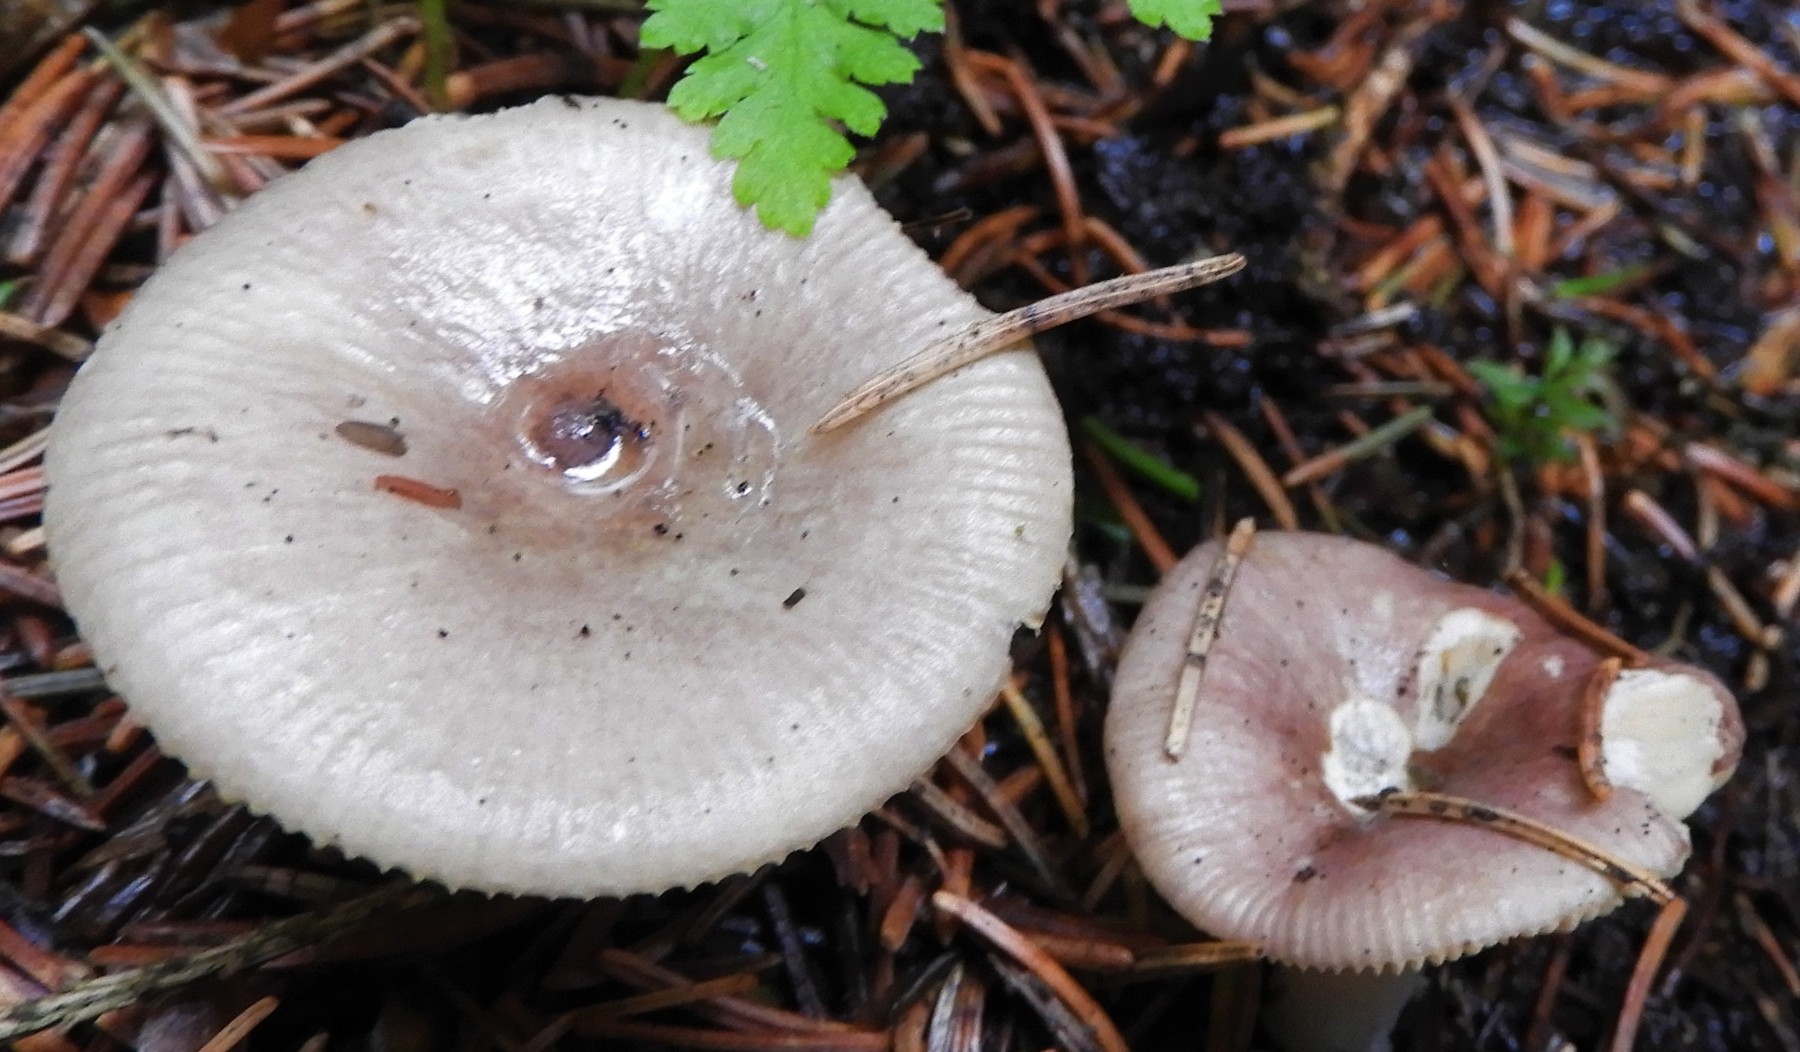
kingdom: Fungi
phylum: Basidiomycota
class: Agaricomycetes
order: Russulales
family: Russulaceae
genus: Russula
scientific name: Russula nauseosa
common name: spinkel skørhat
